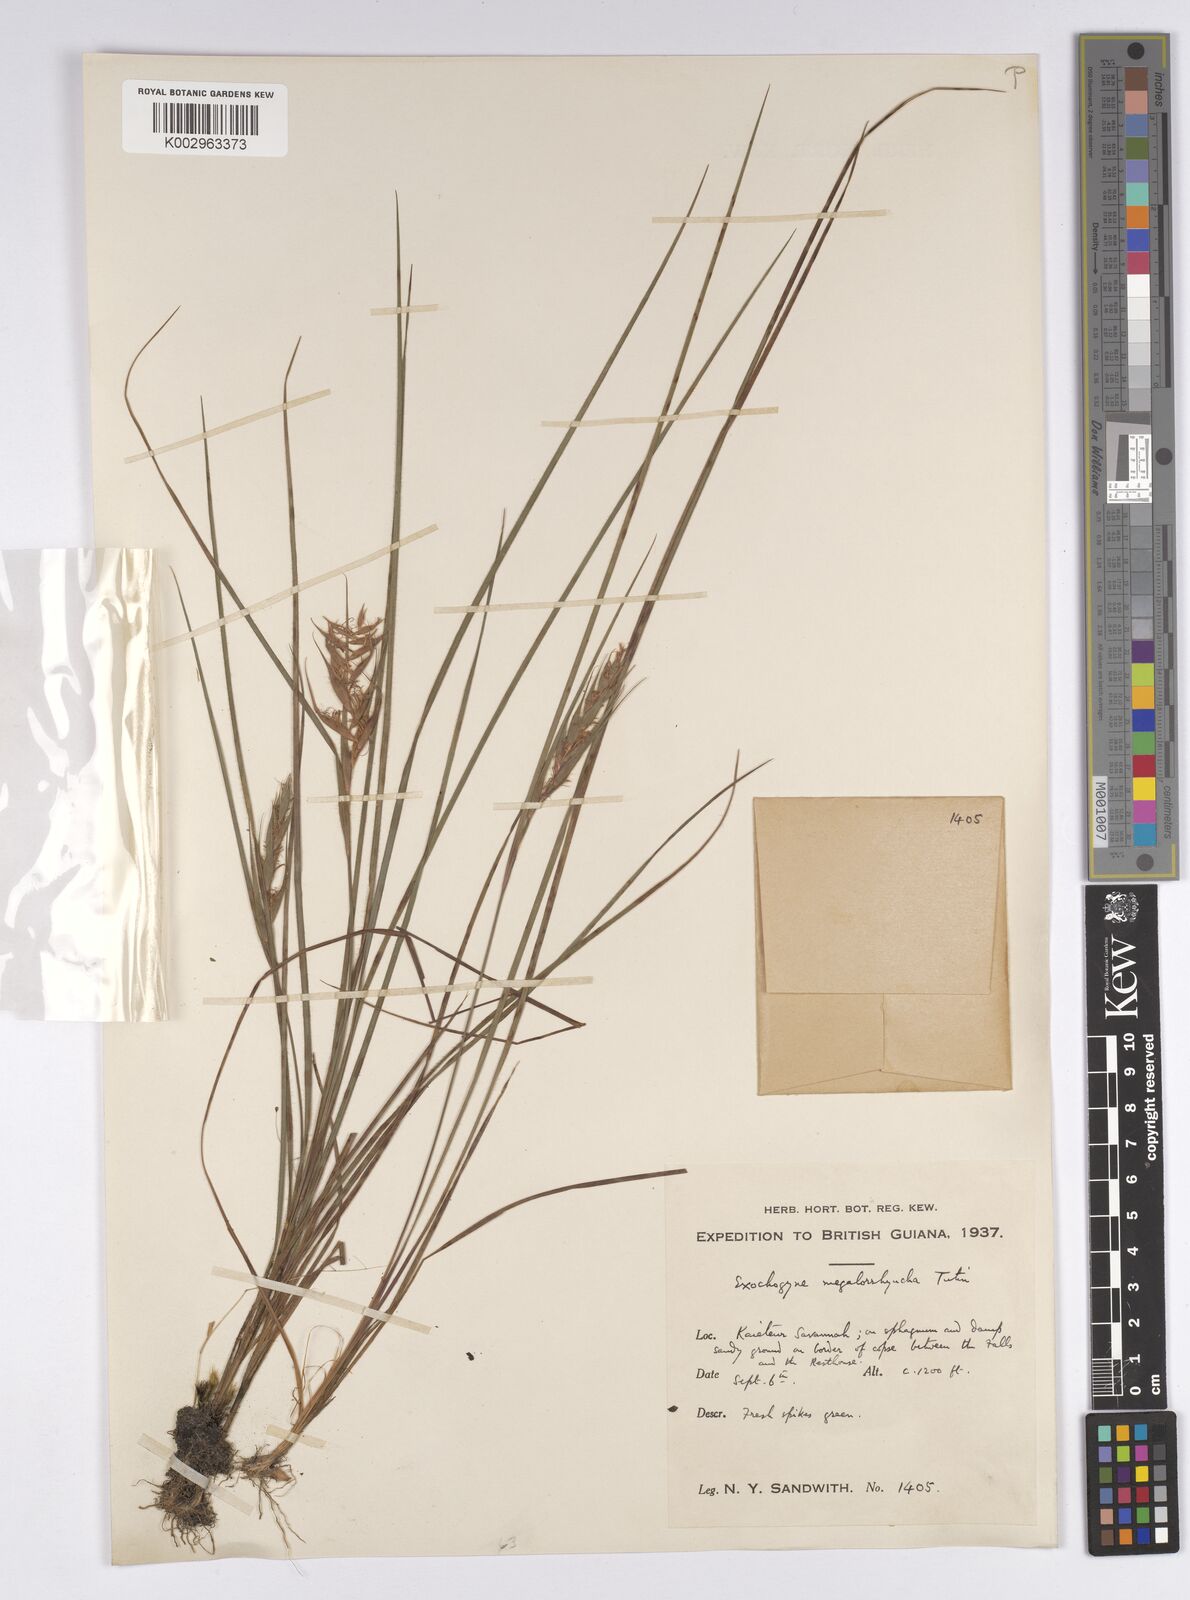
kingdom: Plantae
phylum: Tracheophyta
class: Liliopsida
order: Poales
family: Cyperaceae
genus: Exochogyne
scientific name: Exochogyne amazonica
